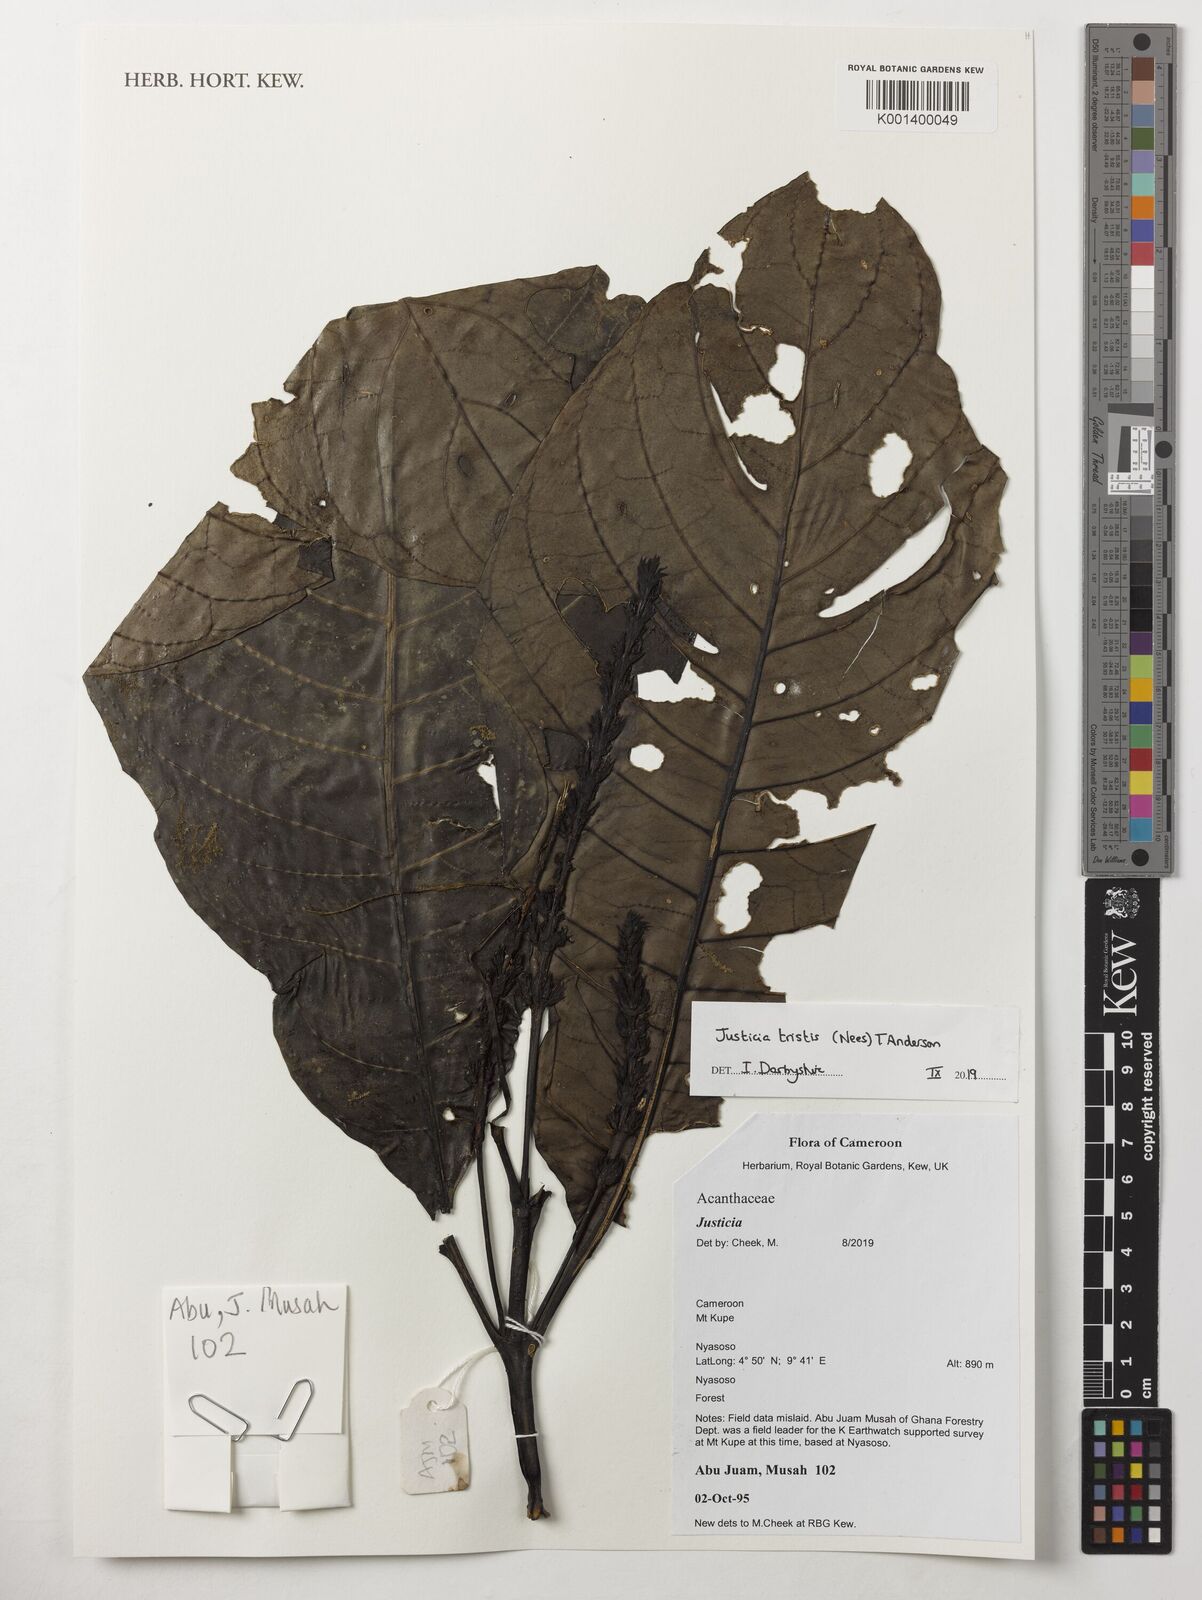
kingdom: Plantae
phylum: Tracheophyta
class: Magnoliopsida
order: Lamiales
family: Acanthaceae
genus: Justicia
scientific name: Justicia tristis
